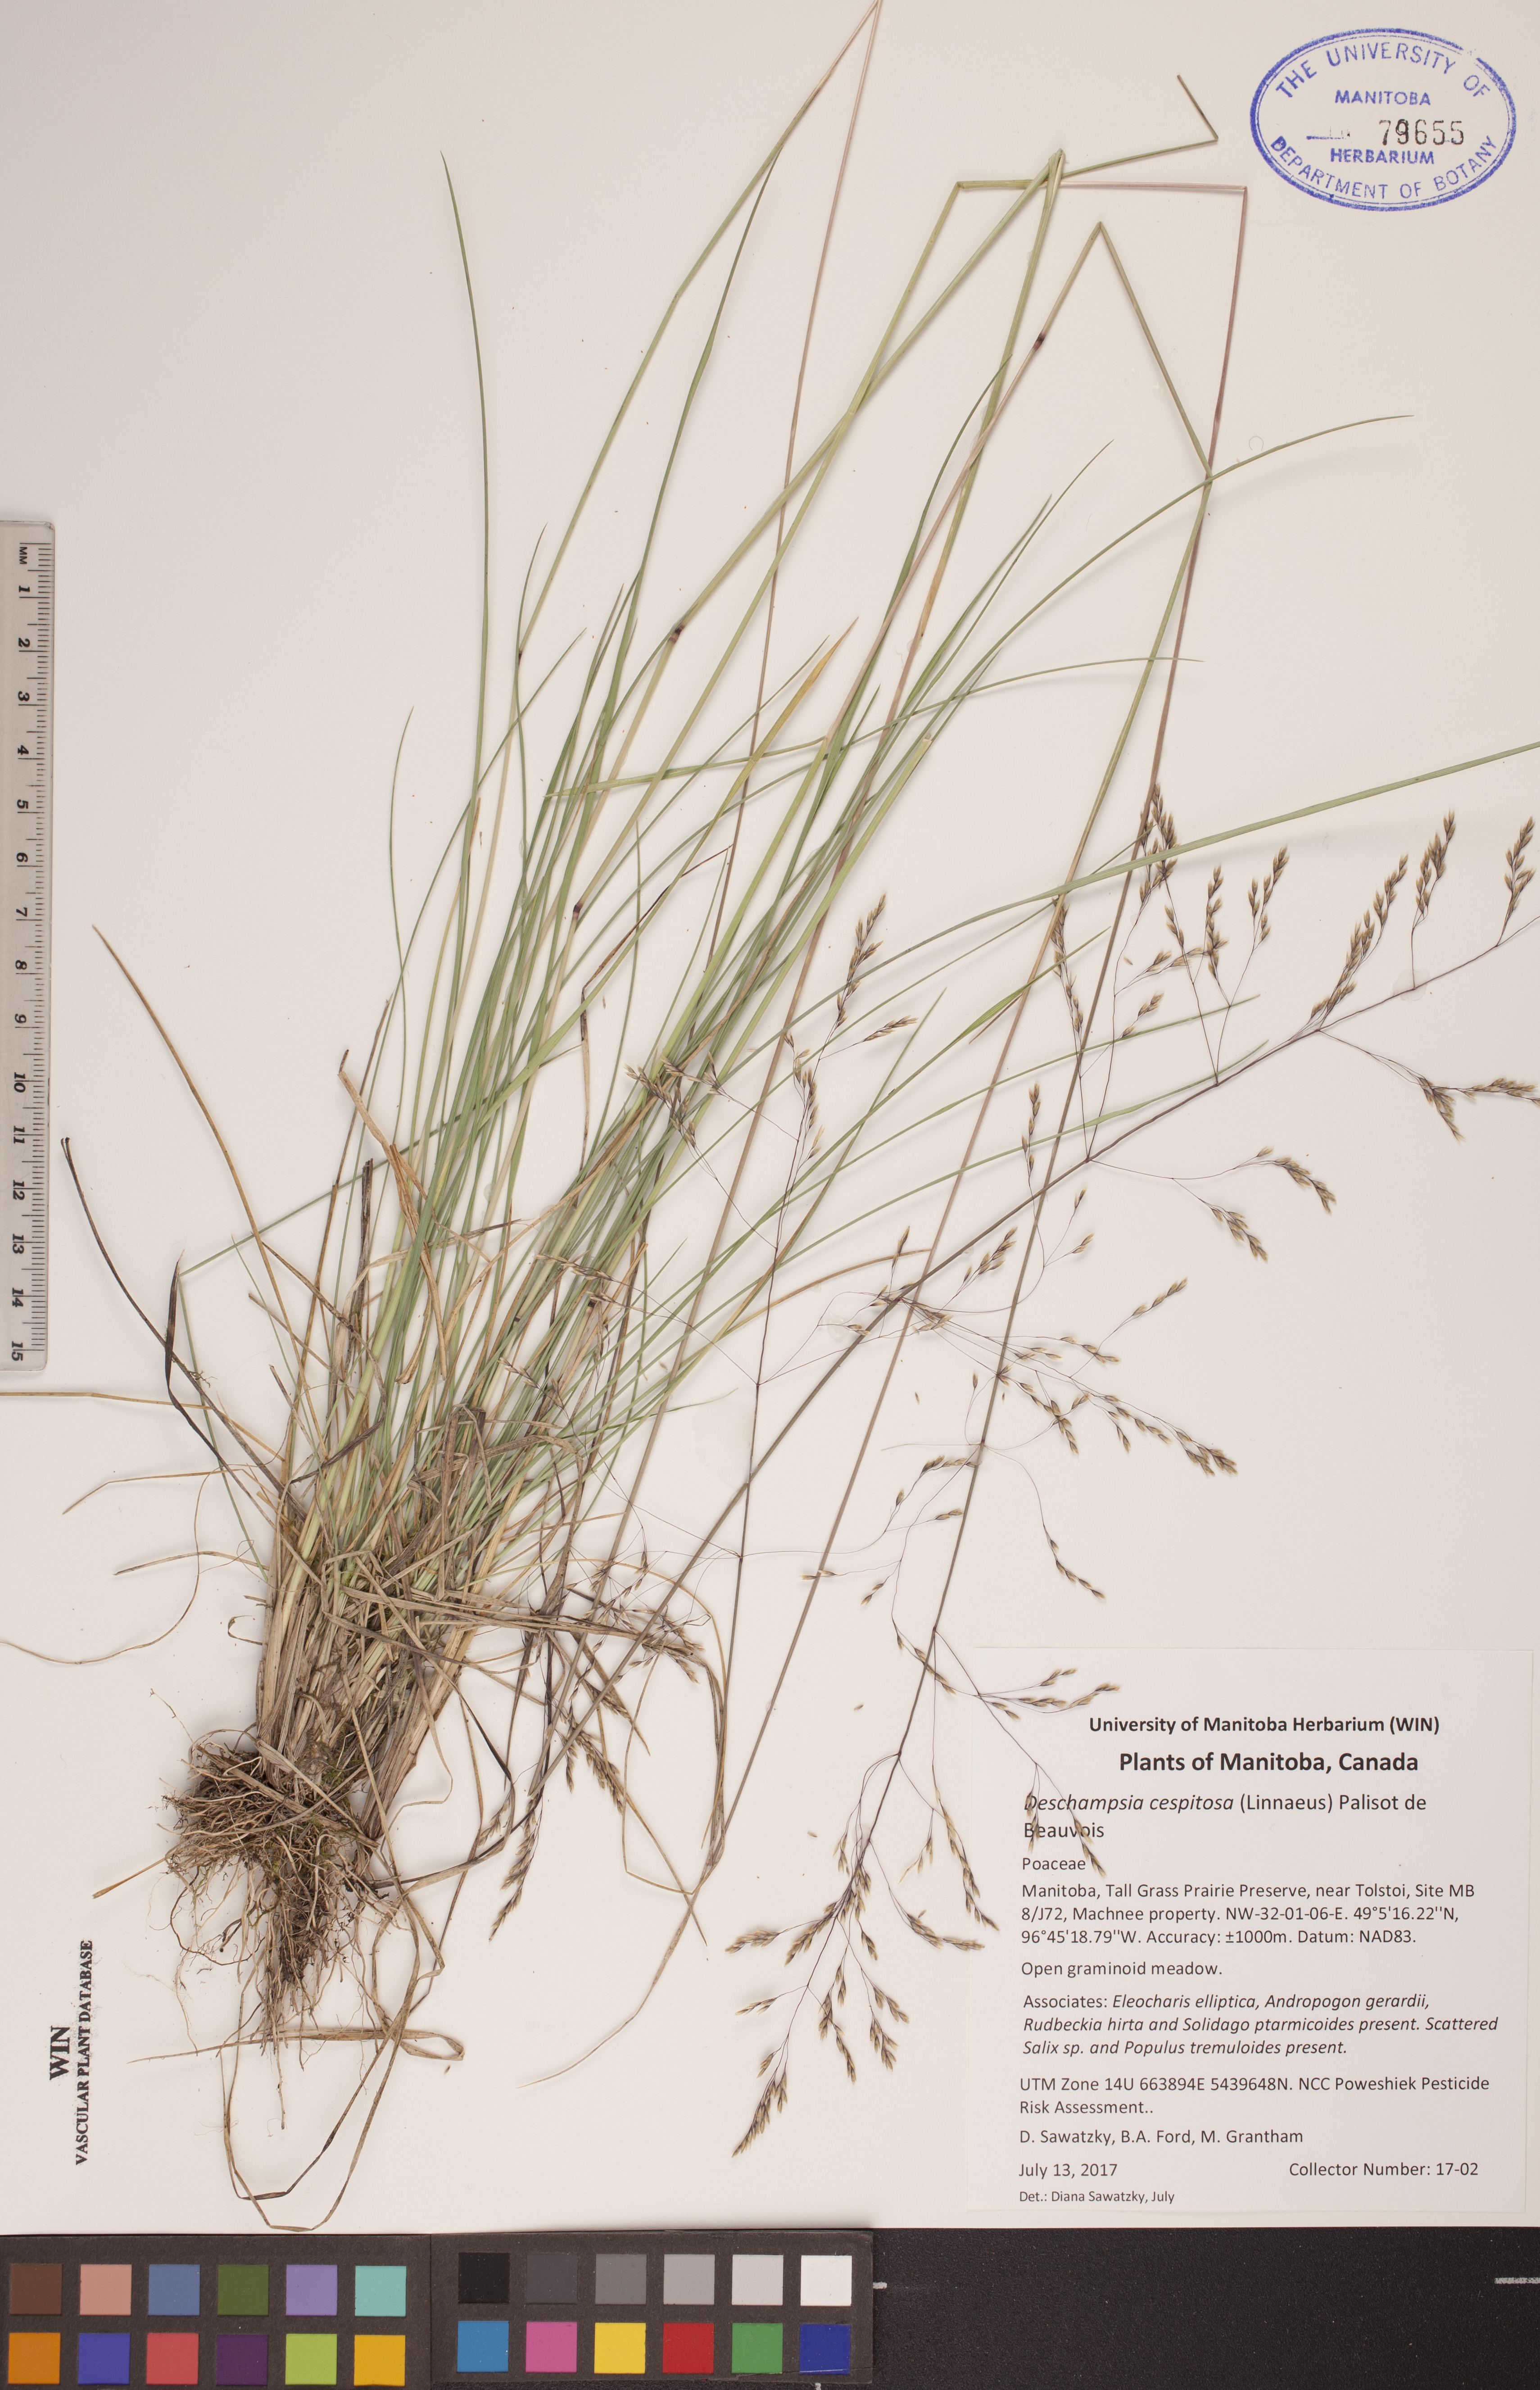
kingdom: Plantae
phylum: Tracheophyta
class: Liliopsida
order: Poales
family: Poaceae
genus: Deschampsia
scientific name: Deschampsia cespitosa
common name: Tufted hair-grass
